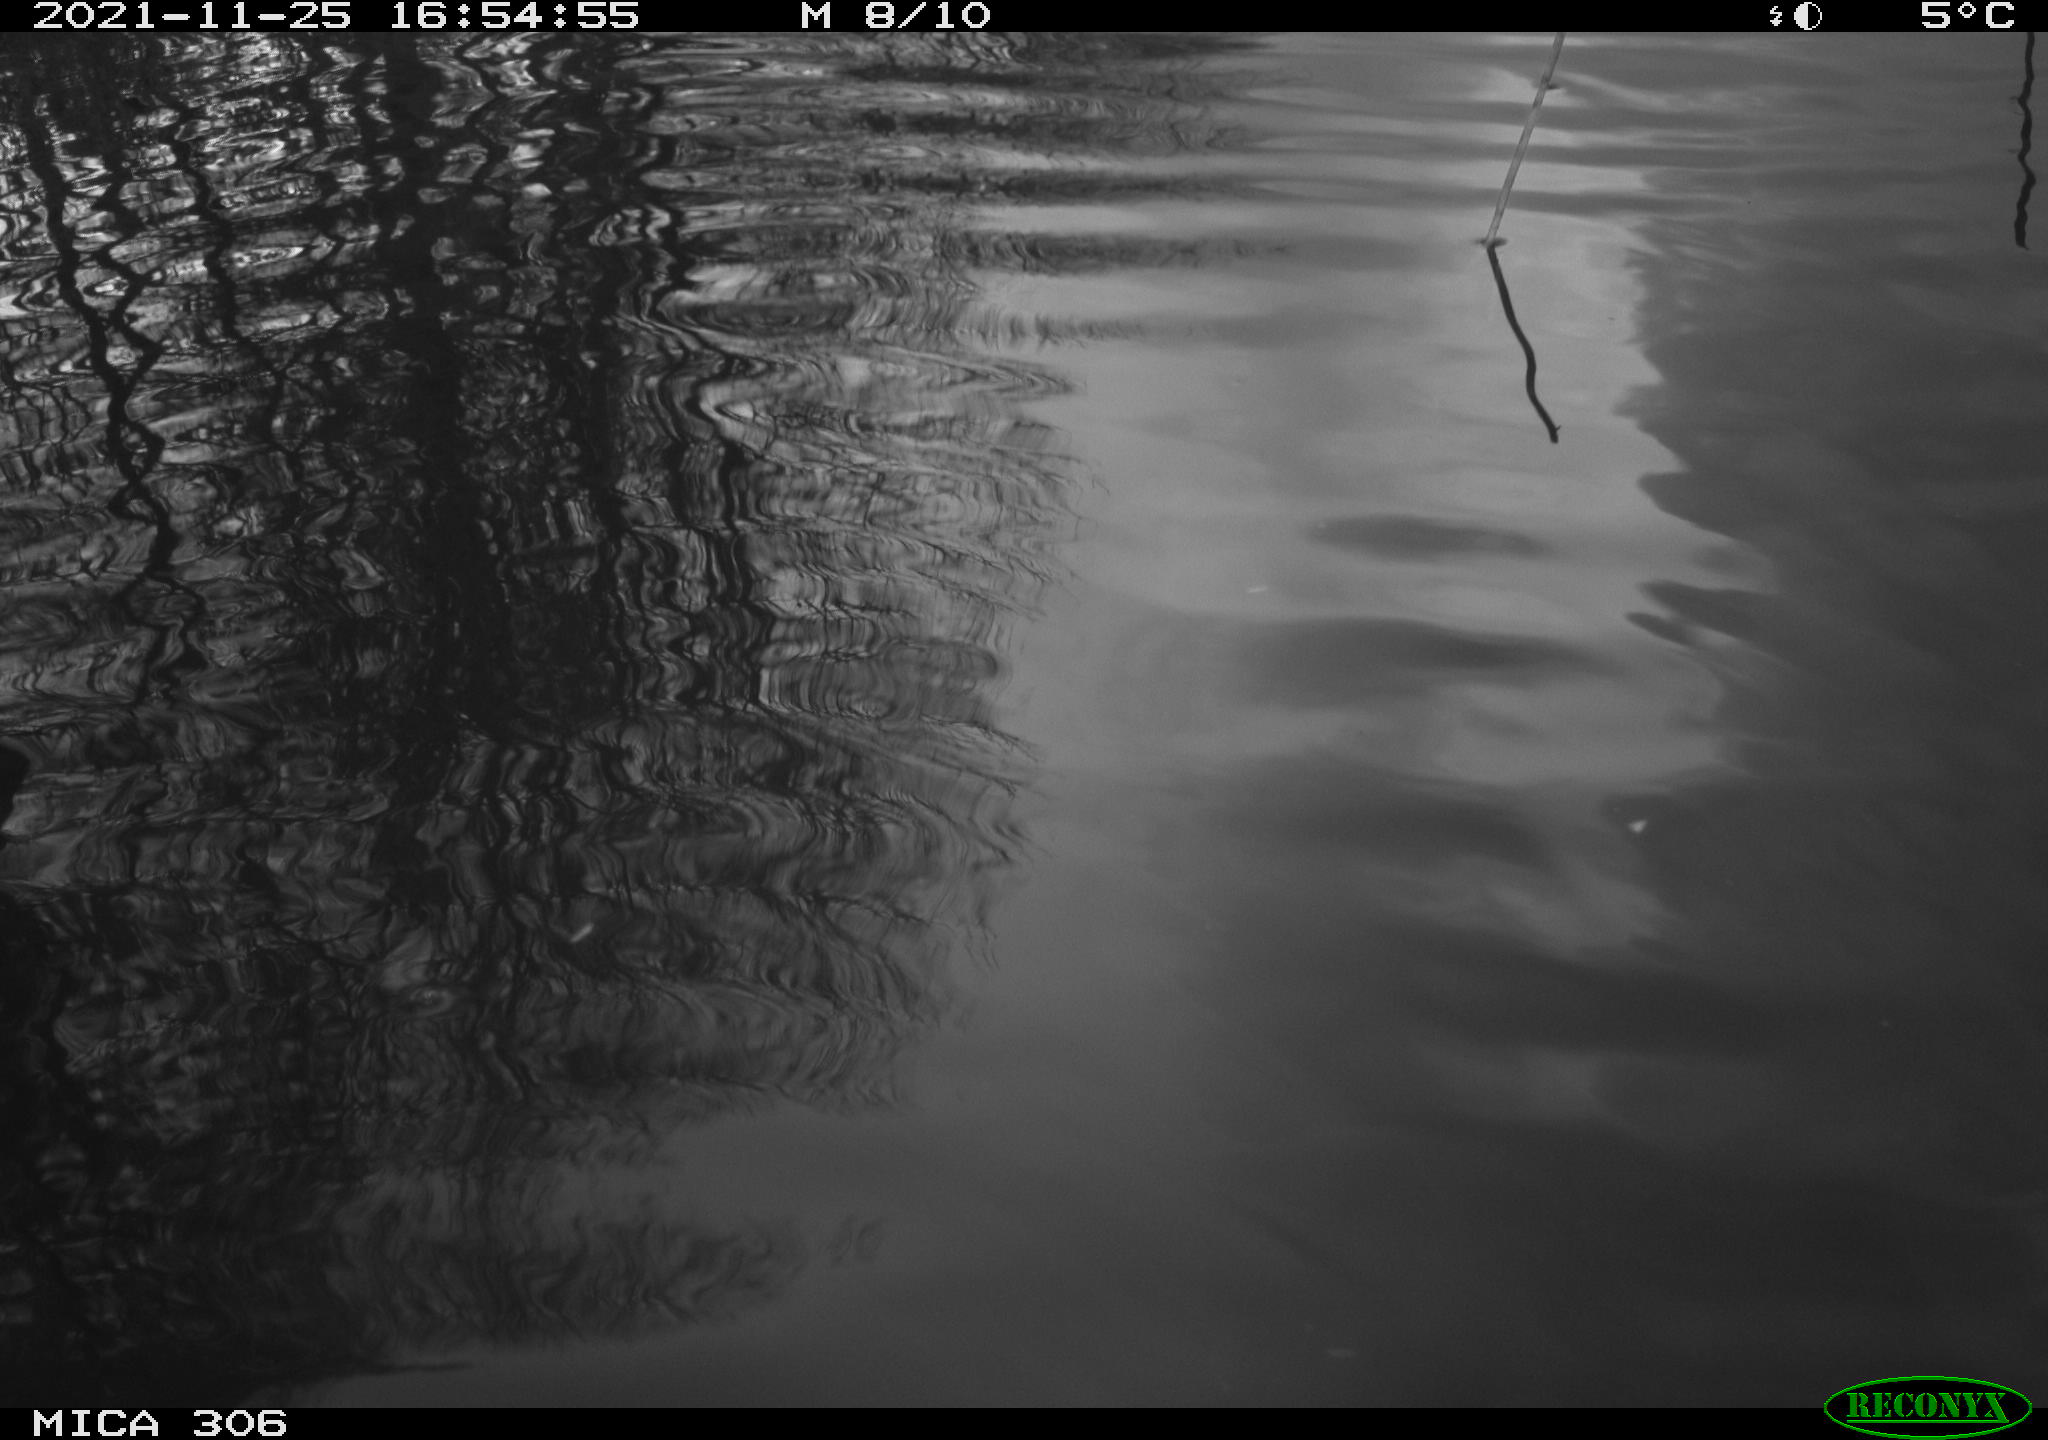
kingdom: Animalia
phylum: Chordata
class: Aves
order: Gruiformes
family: Rallidae
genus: Fulica
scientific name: Fulica atra
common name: Eurasian coot
